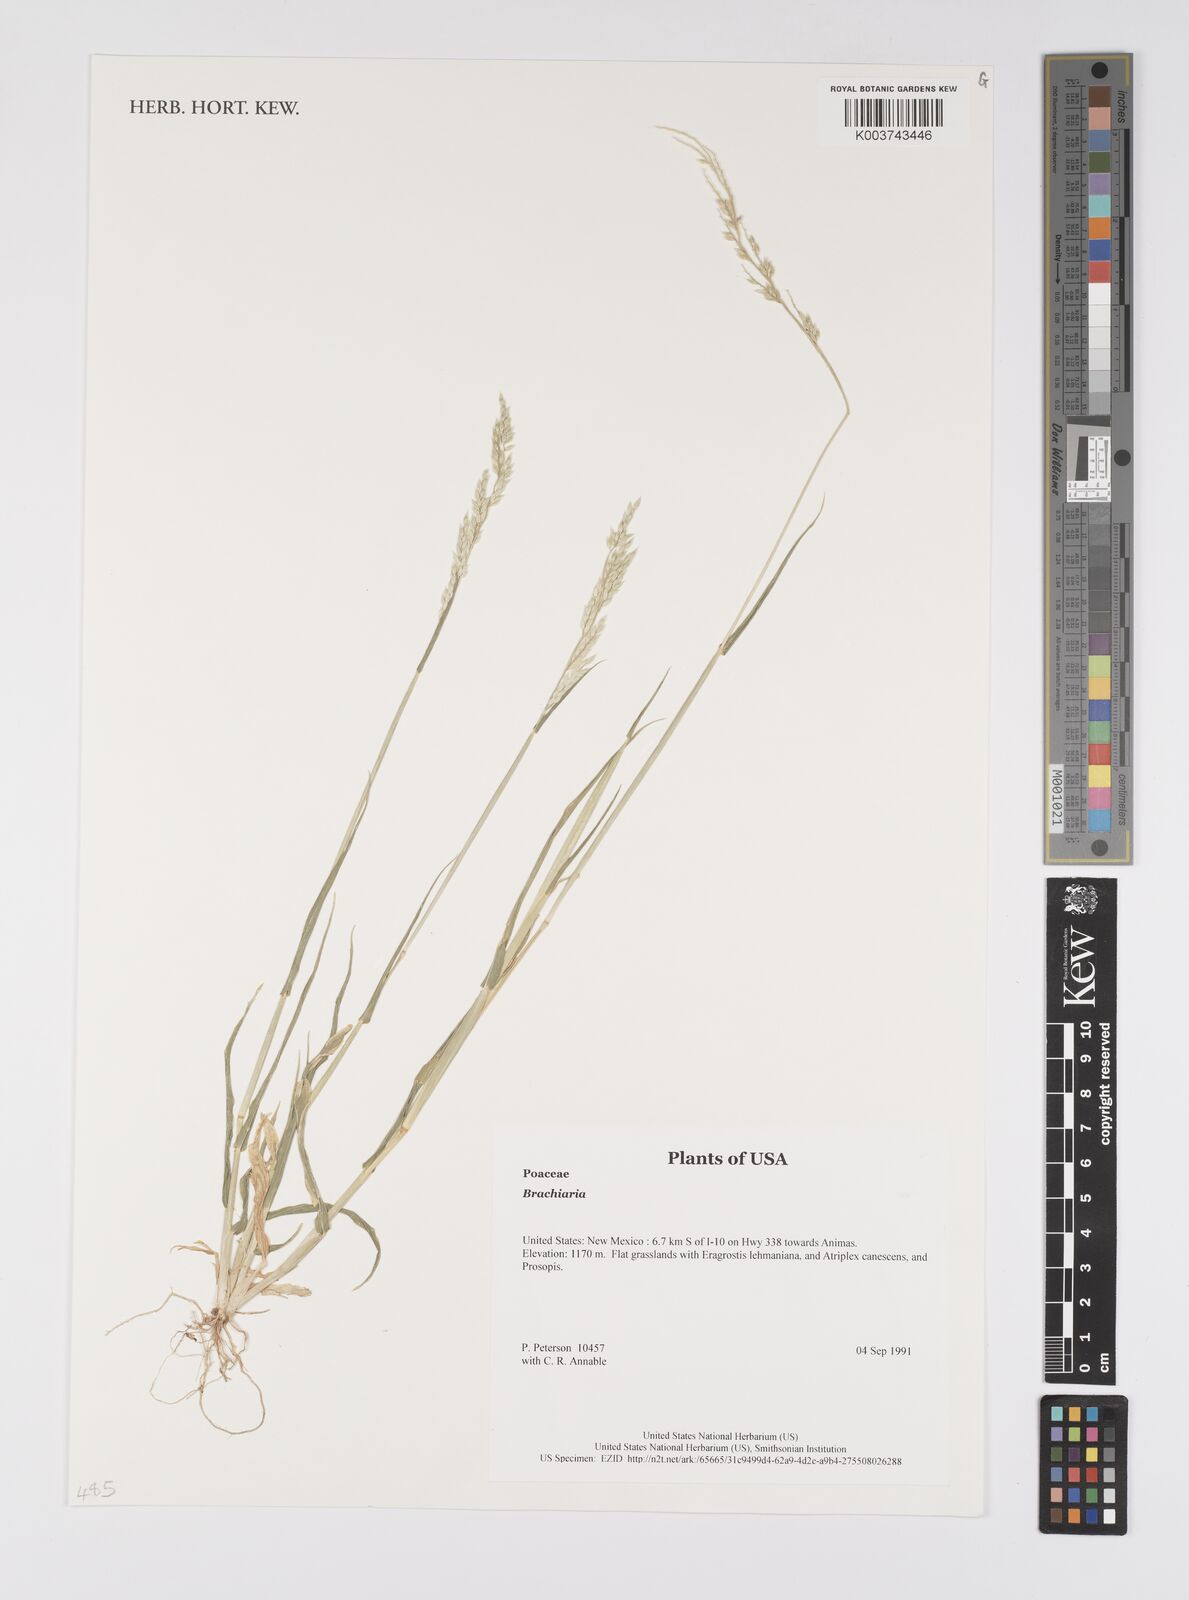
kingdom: Plantae
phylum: Tracheophyta
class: Liliopsida
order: Poales
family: Poaceae
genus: Brachiaria
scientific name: Brachiaria
